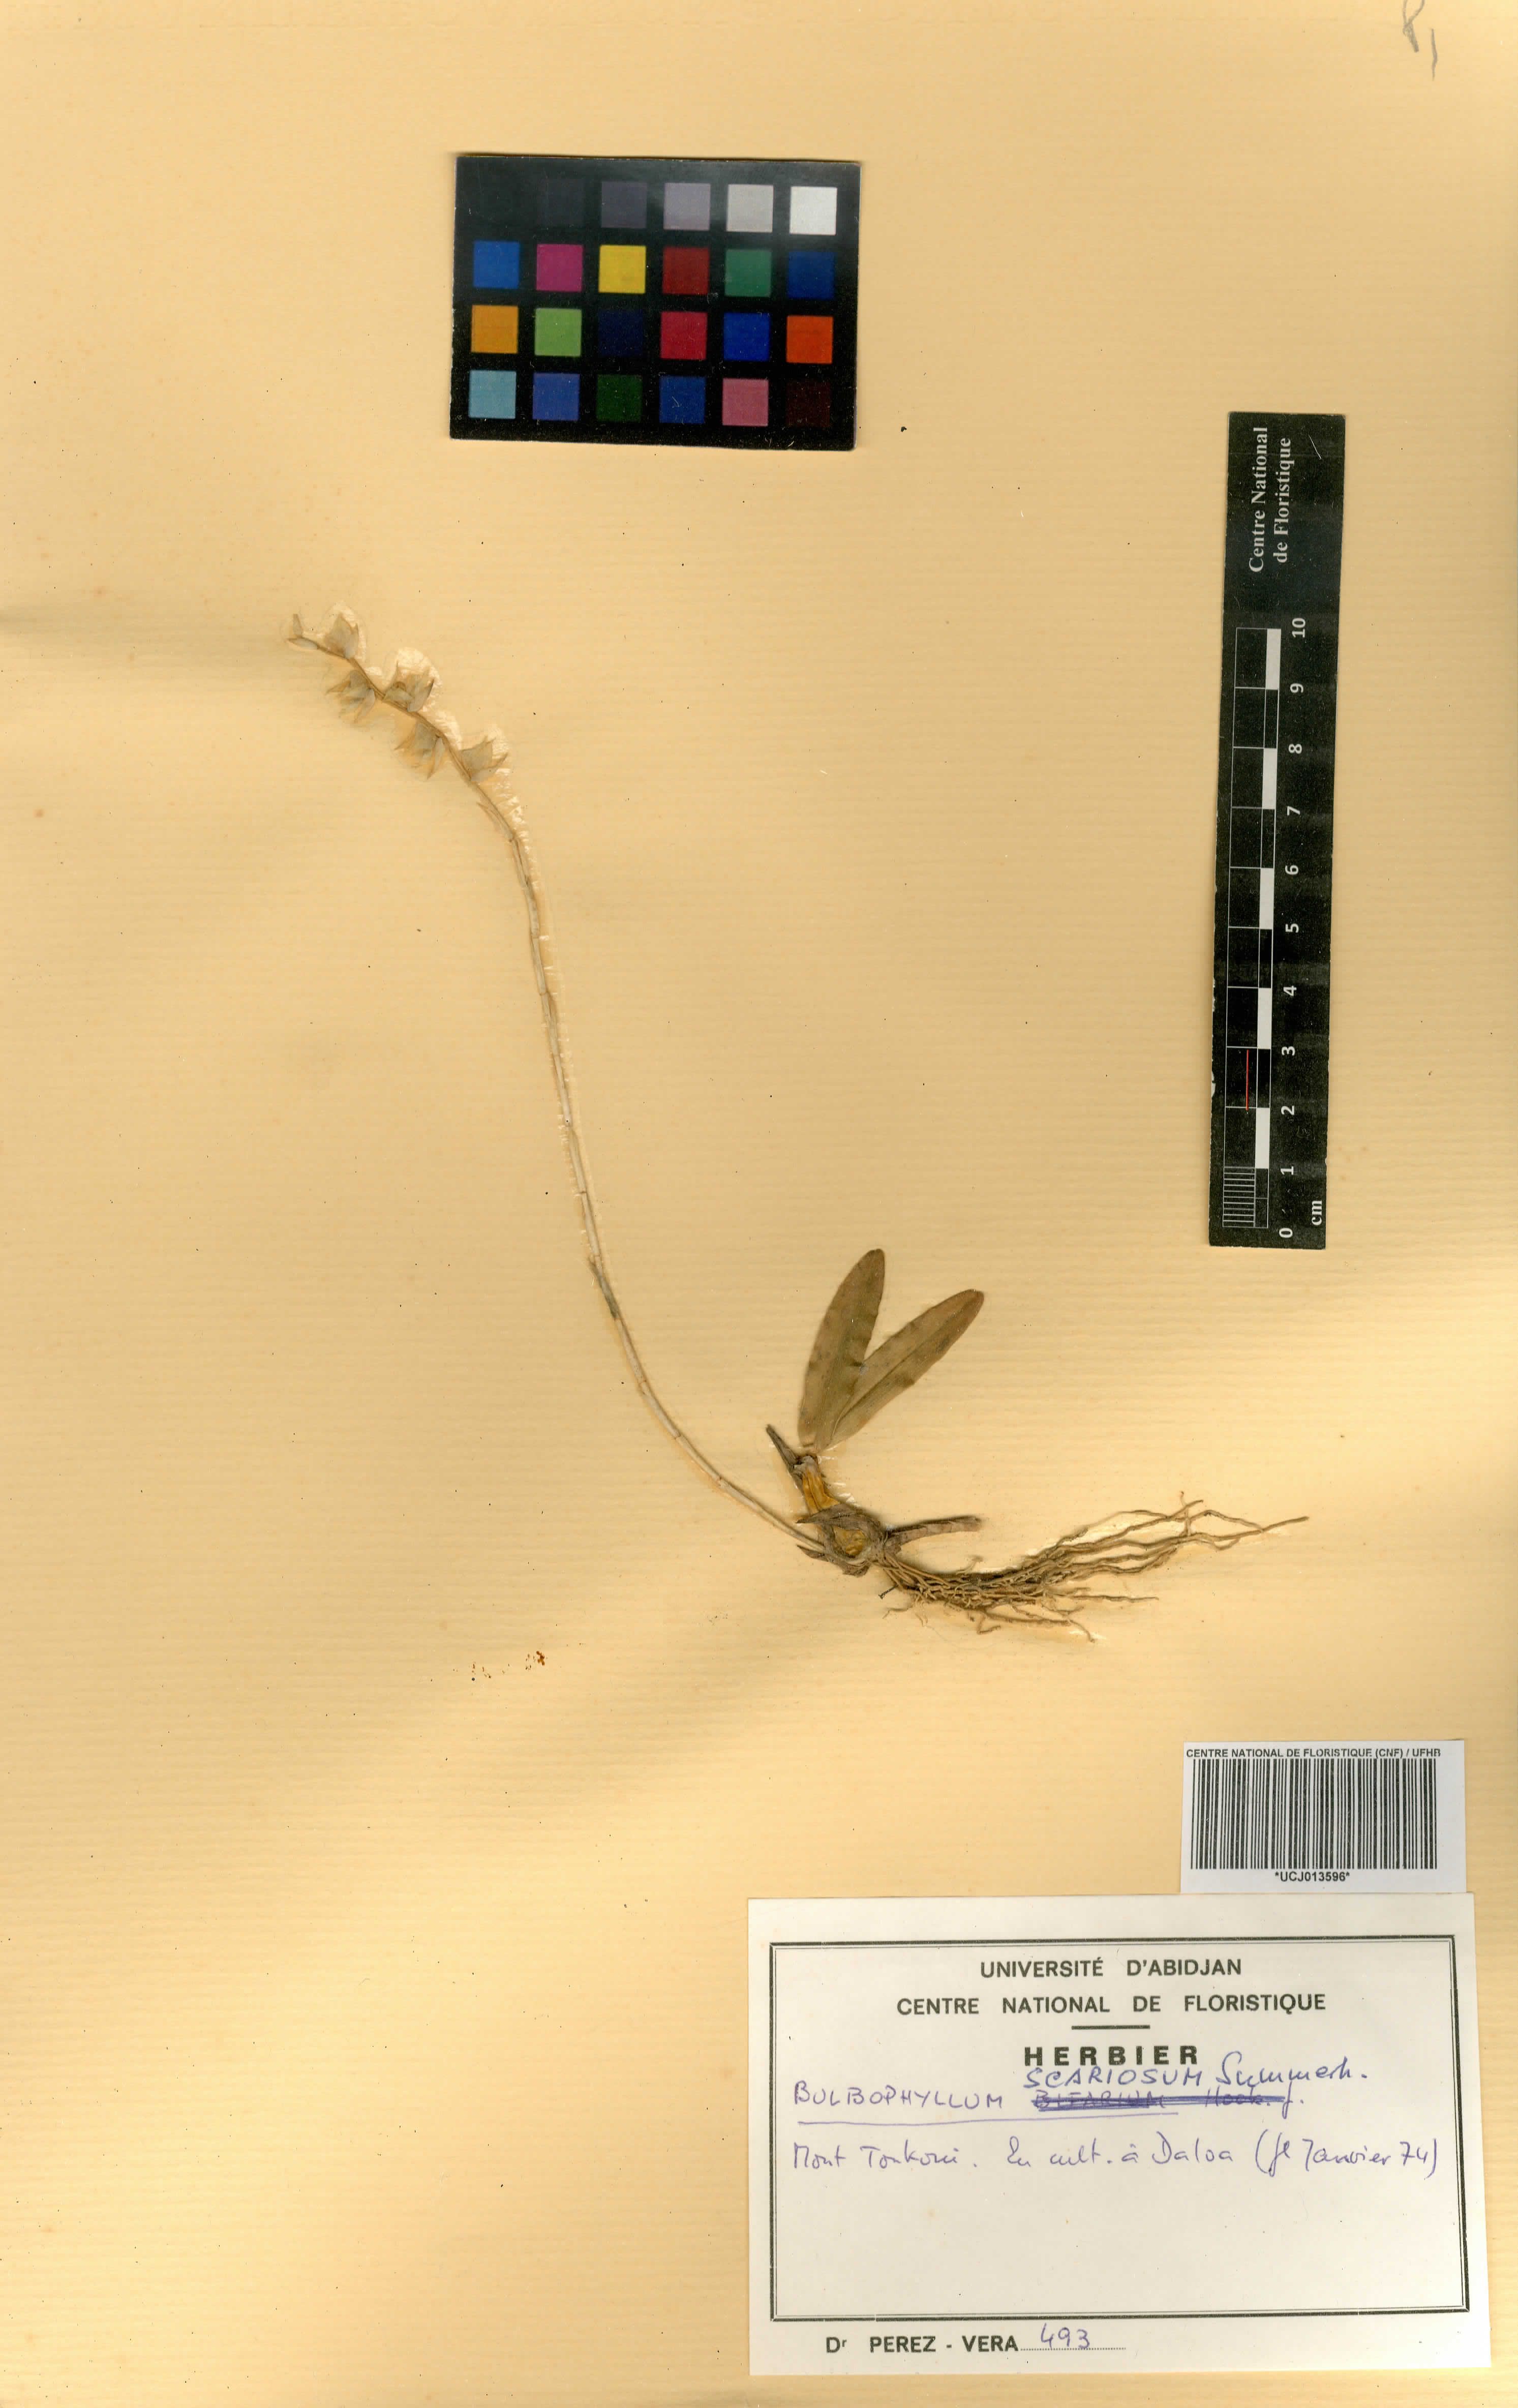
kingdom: Plantae
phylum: Tracheophyta
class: Liliopsida
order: Asparagales
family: Orchidaceae
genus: Bulbophyllum
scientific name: Bulbophyllum scariosum
